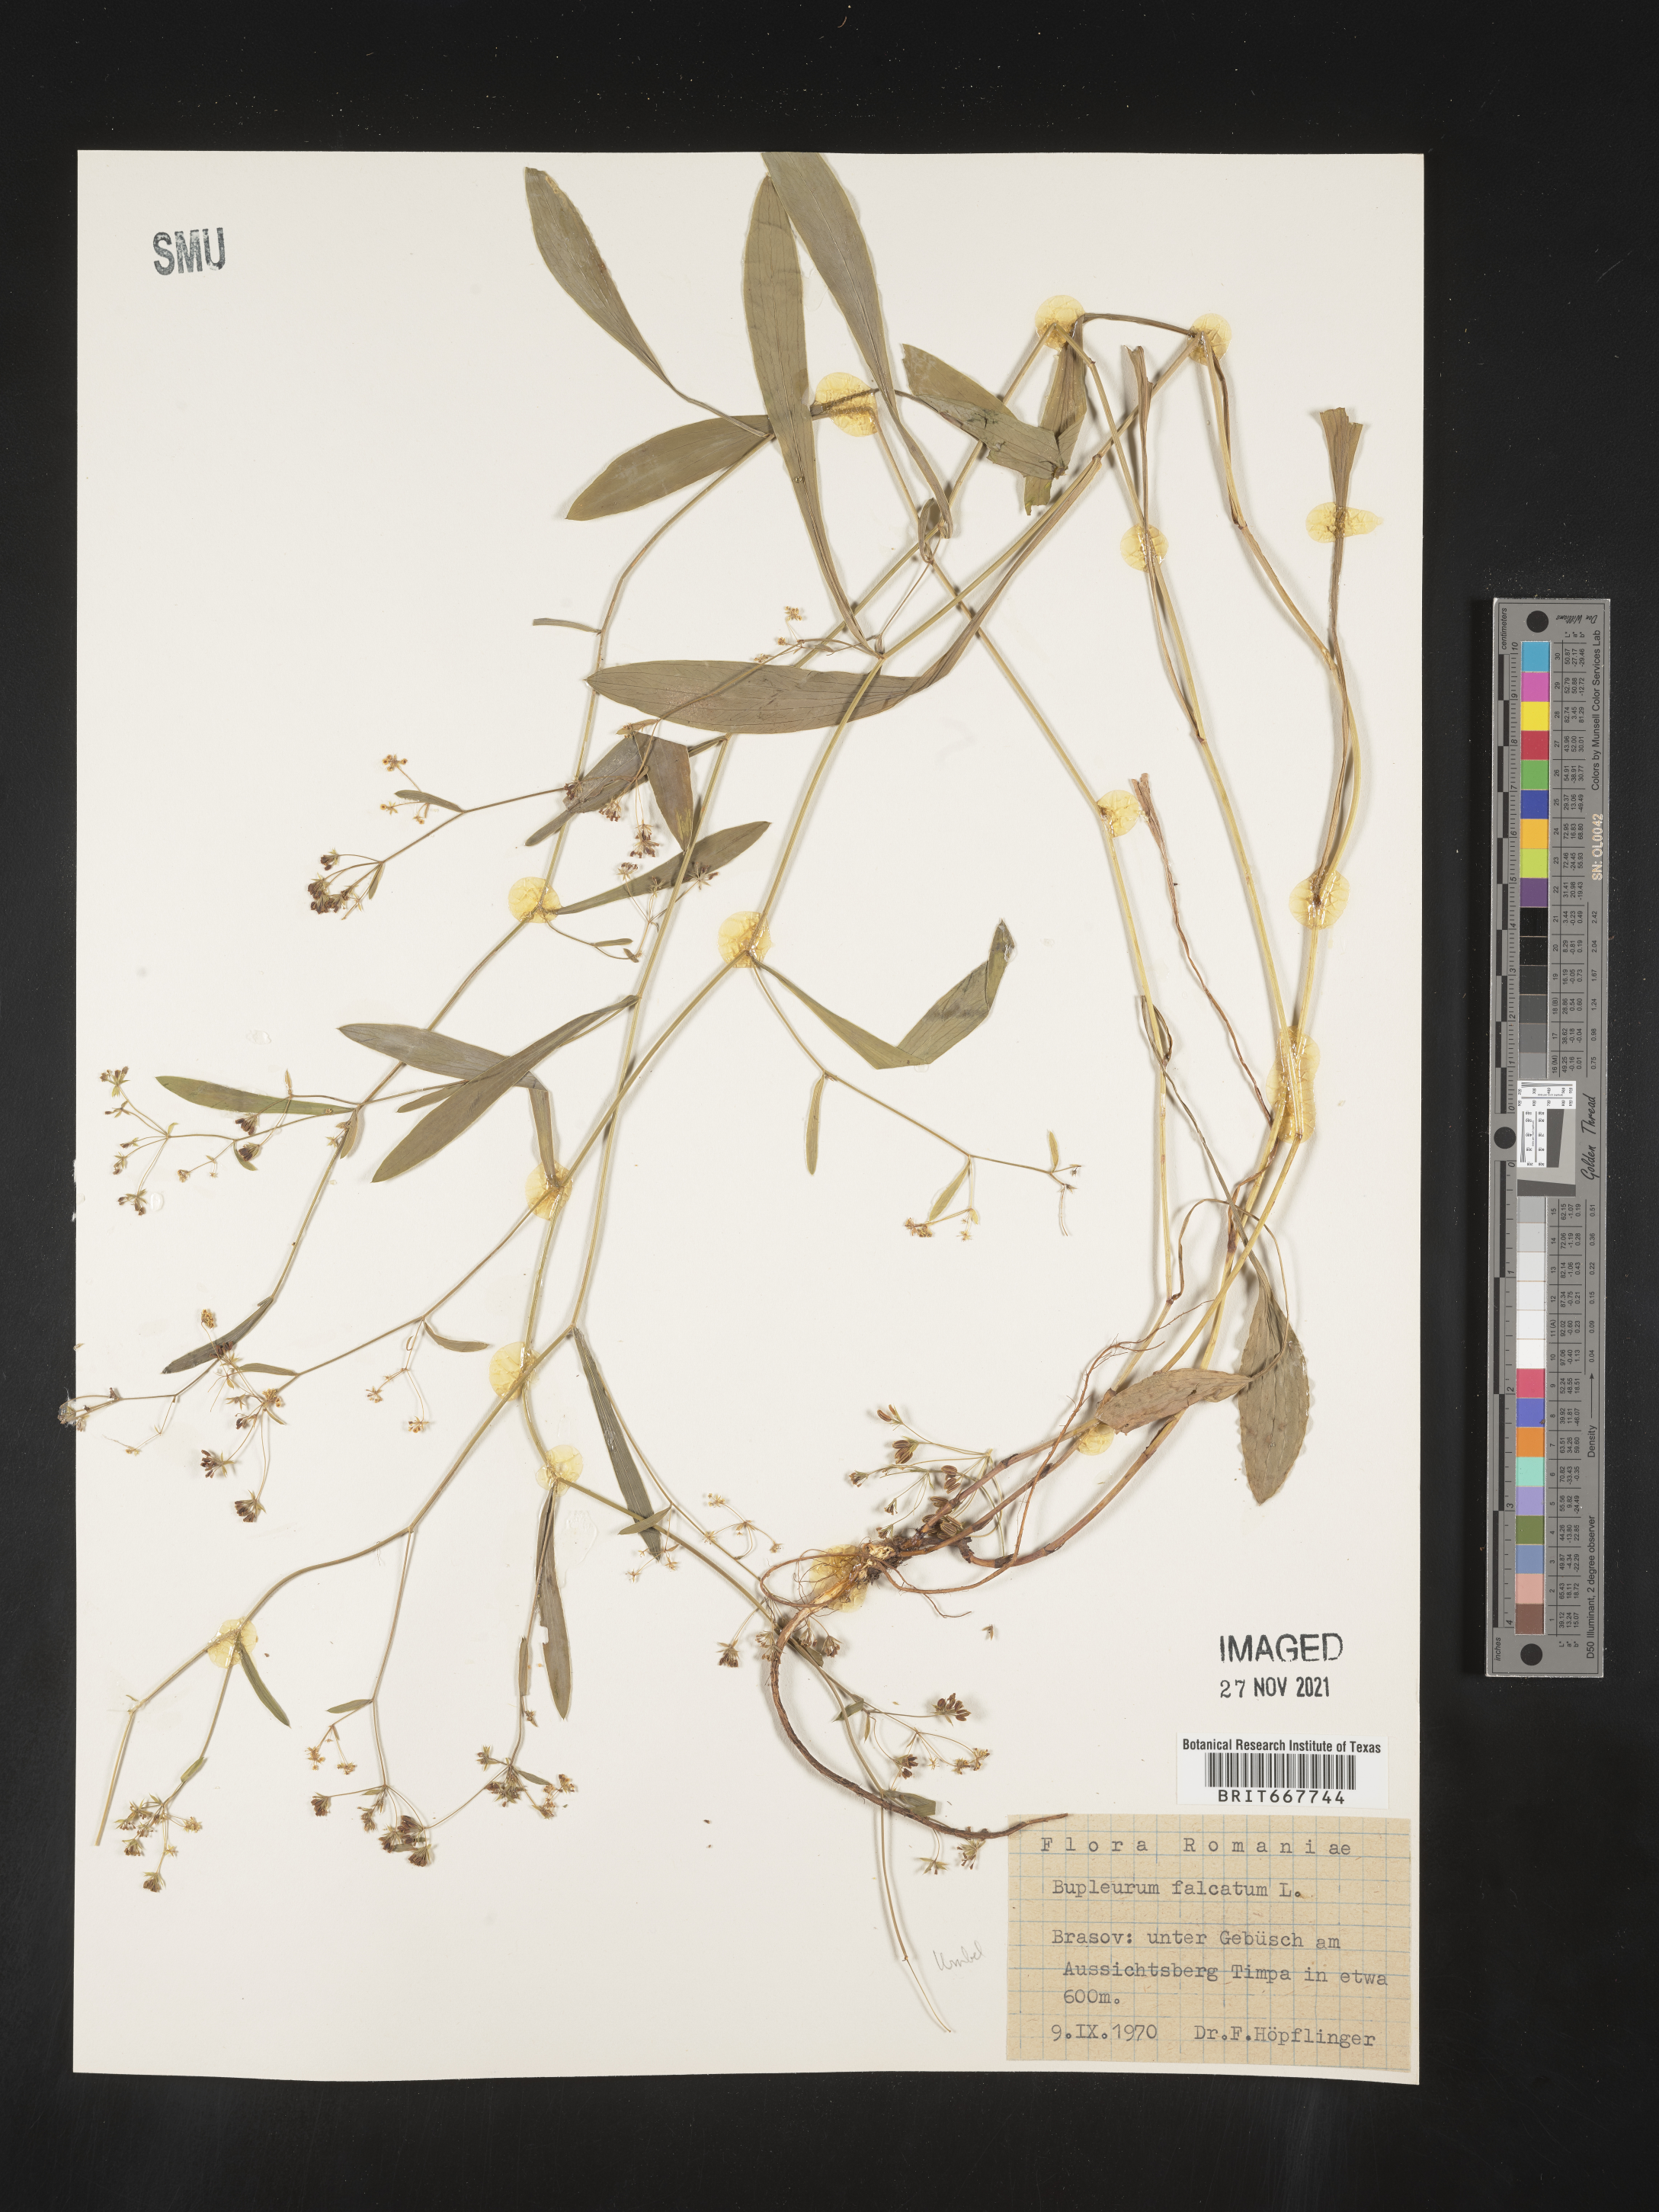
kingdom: Plantae
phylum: Tracheophyta
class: Magnoliopsida
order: Apiales
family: Apiaceae
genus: Bupleurum
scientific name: Bupleurum
